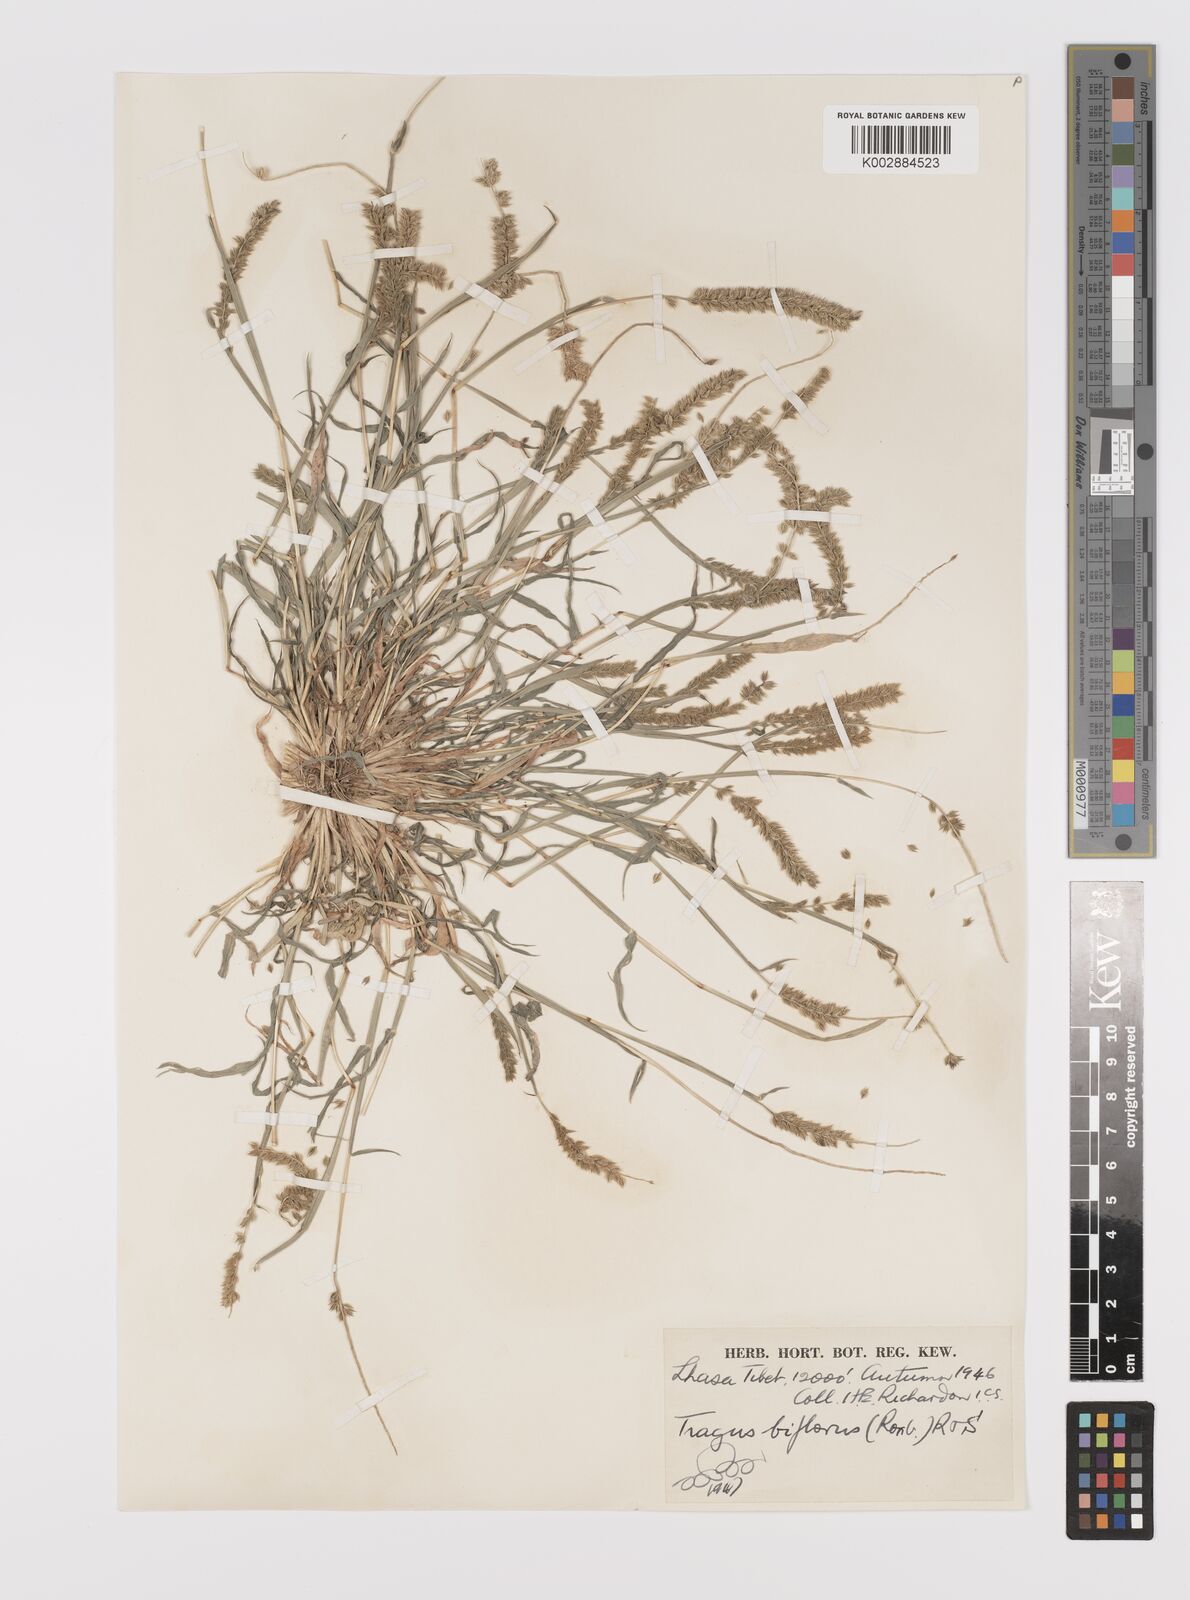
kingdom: Plantae
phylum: Tracheophyta
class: Liliopsida
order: Poales
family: Poaceae
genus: Tragus
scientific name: Tragus mongolorum
